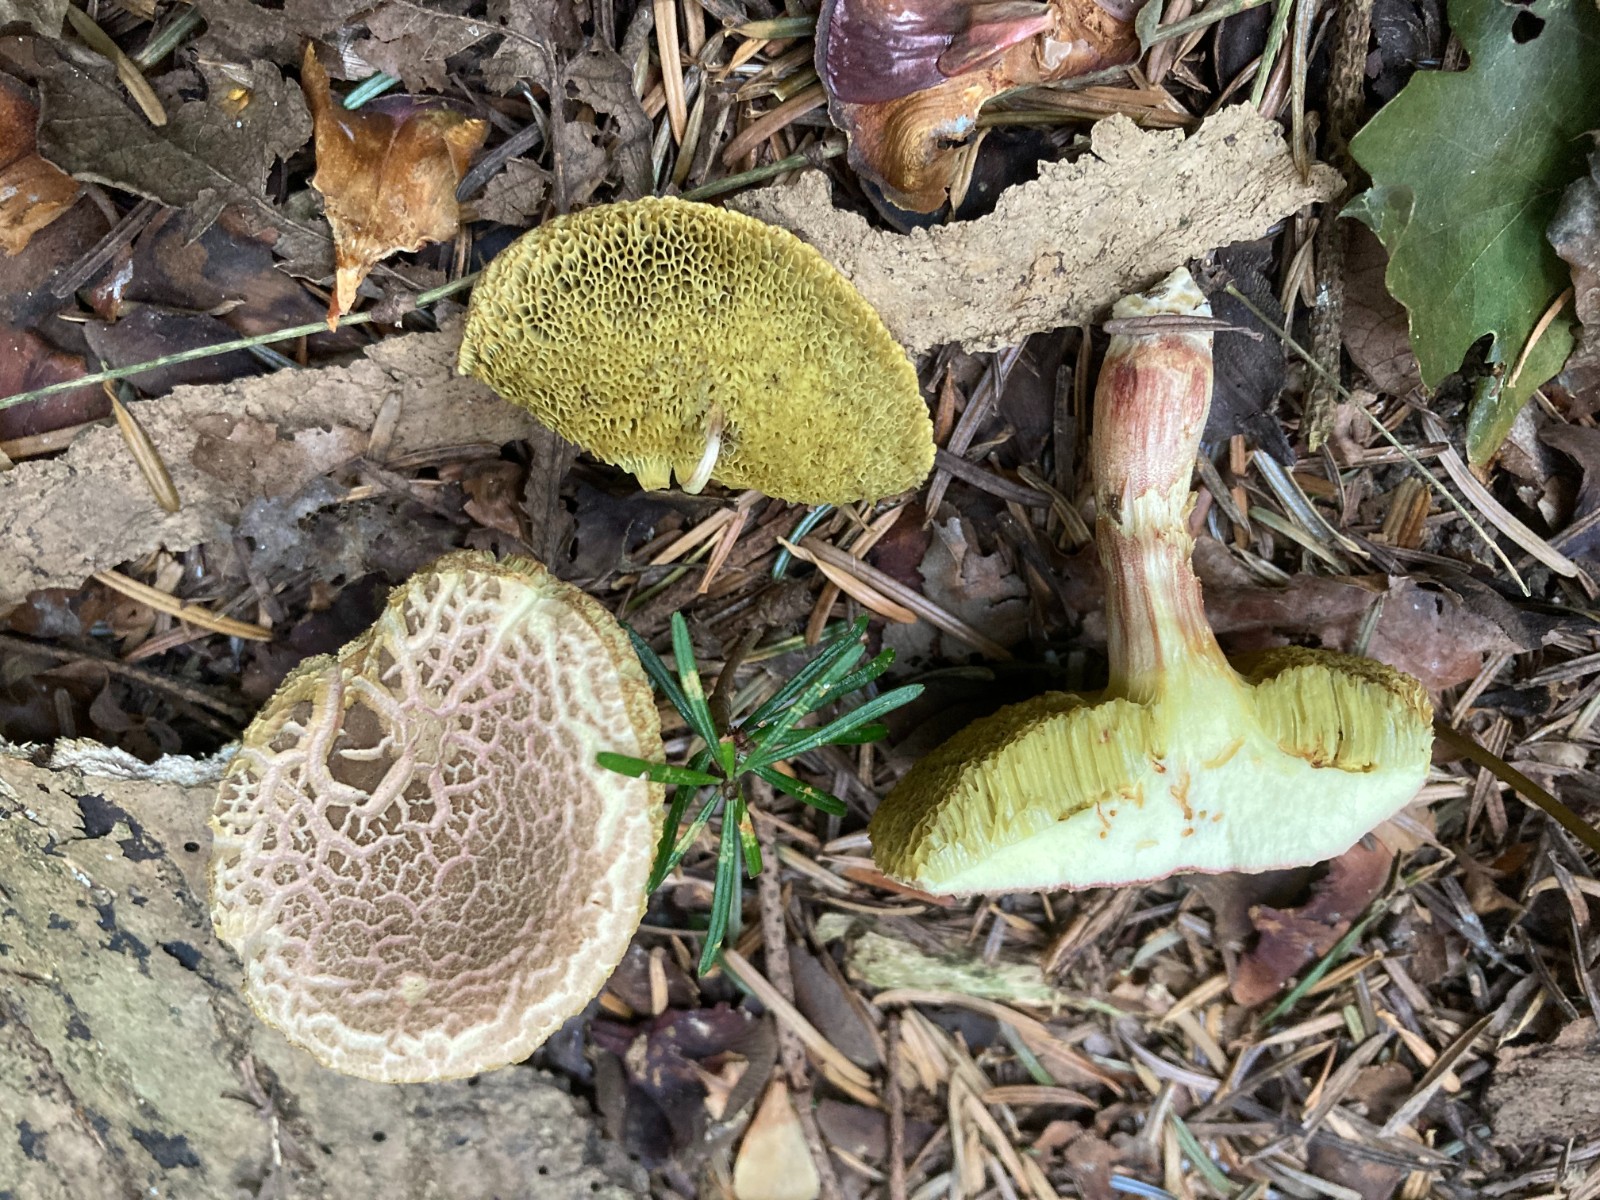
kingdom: Fungi
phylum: Basidiomycota
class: Agaricomycetes
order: Boletales
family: Boletaceae
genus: Xerocomellus
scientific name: Xerocomellus porosporus
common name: hvidsprukken rørhat
